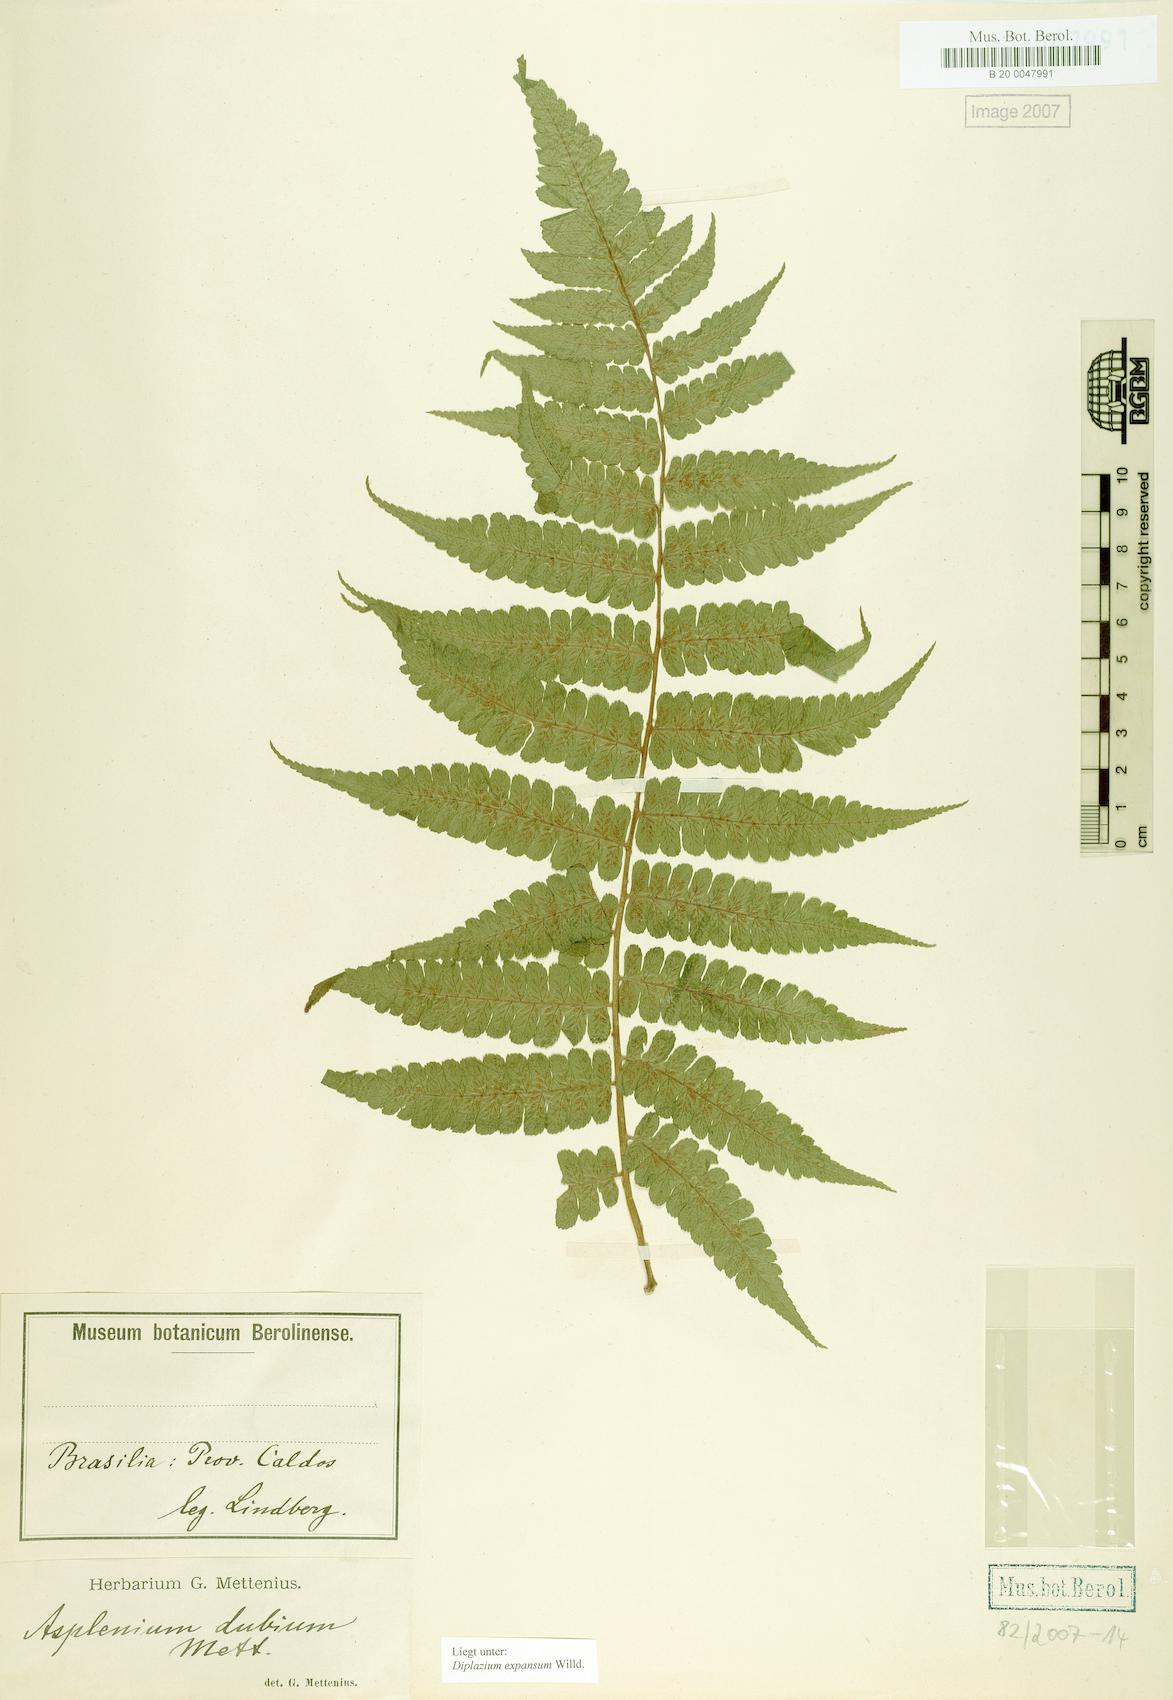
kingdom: Plantae
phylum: Tracheophyta
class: Polypodiopsida
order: Polypodiales
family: Athyriaceae
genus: Diplazium
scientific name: Diplazium expansum
